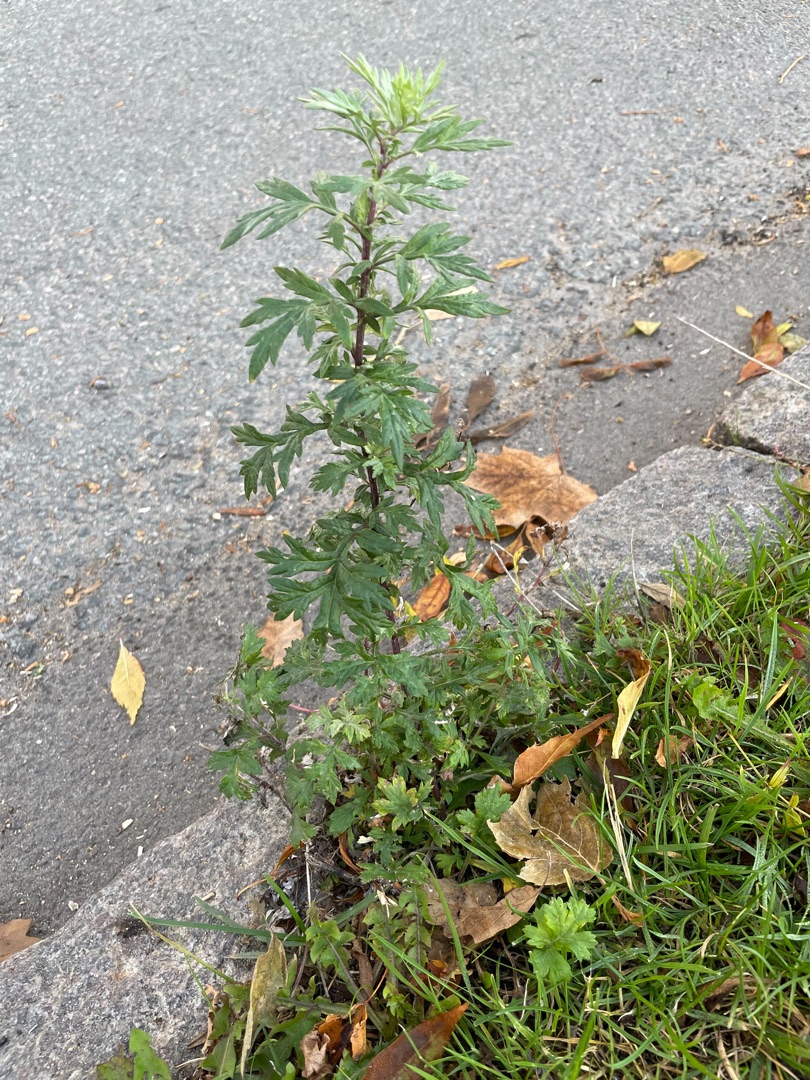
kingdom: Plantae
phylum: Tracheophyta
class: Magnoliopsida
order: Asterales
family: Asteraceae
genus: Artemisia
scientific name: Artemisia vulgaris
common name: Grå-bynke
